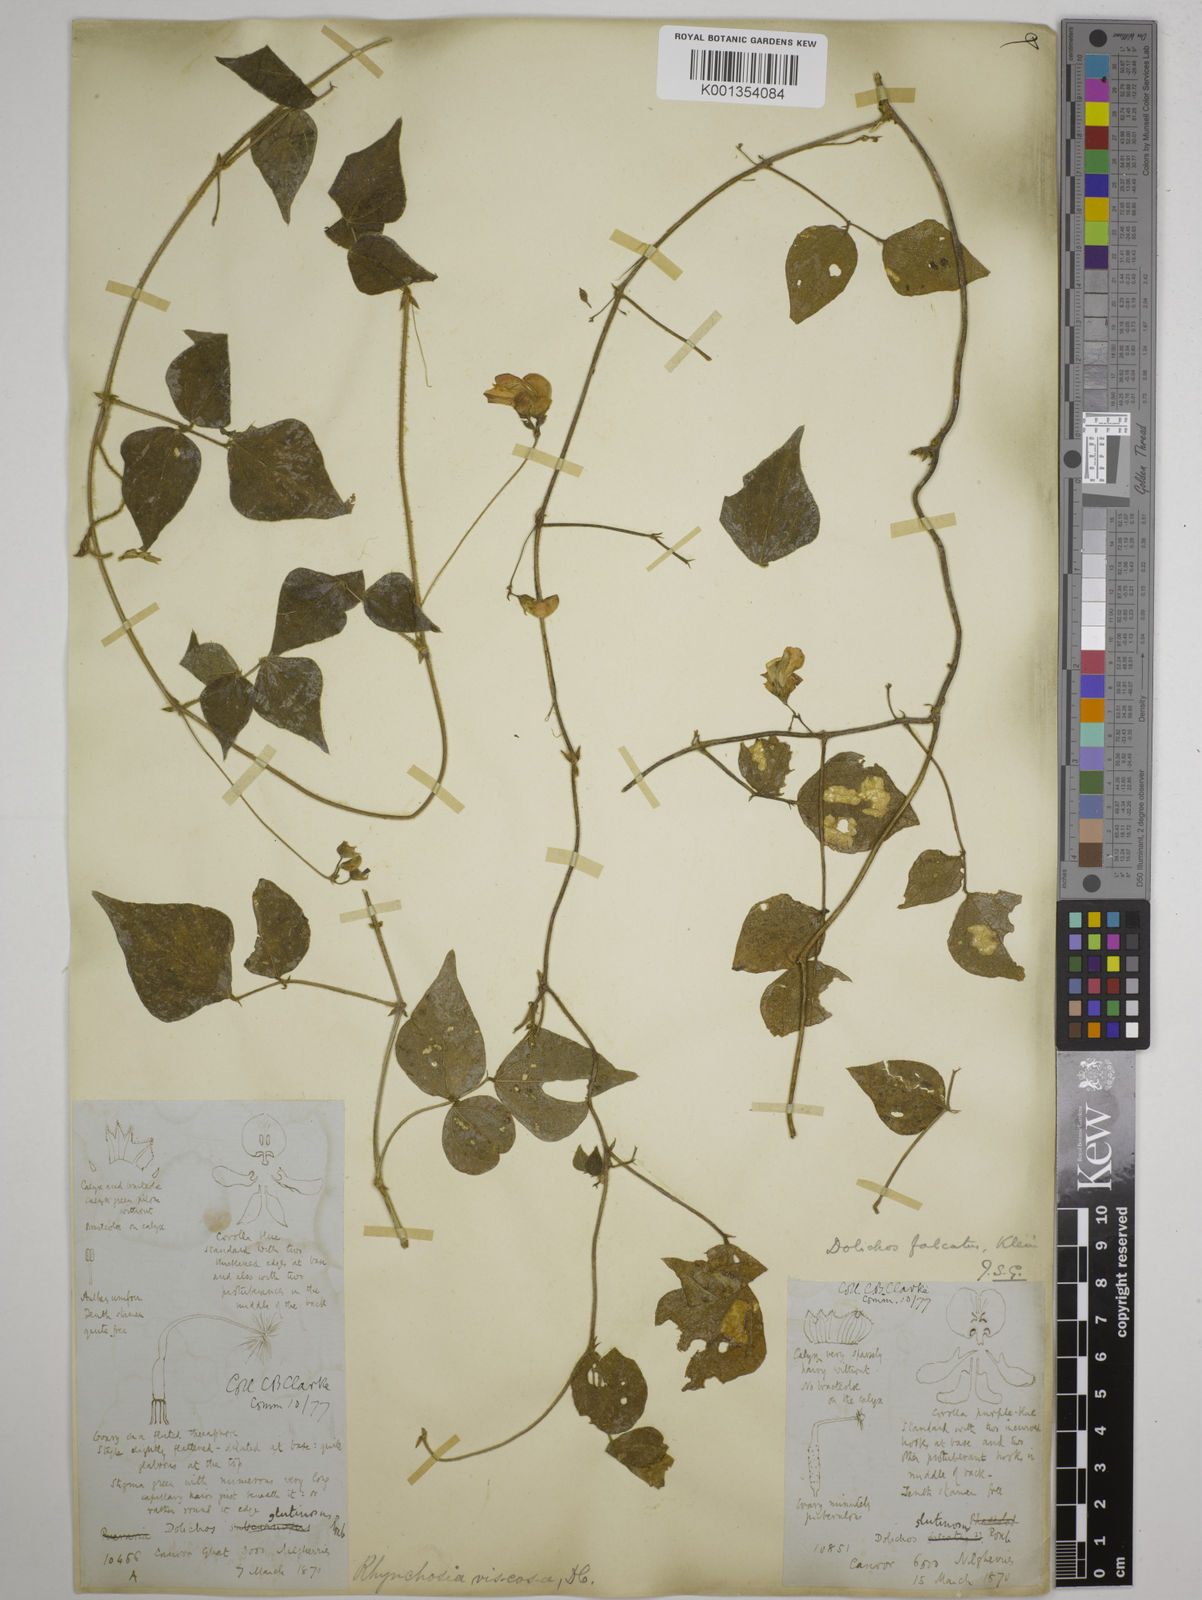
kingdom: Plantae
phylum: Tracheophyta
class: Magnoliopsida
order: Fabales
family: Fabaceae
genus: Dolichos
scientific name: Dolichos
